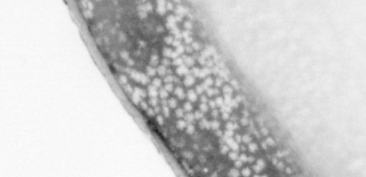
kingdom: Animalia
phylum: Chordata
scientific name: Chordata
